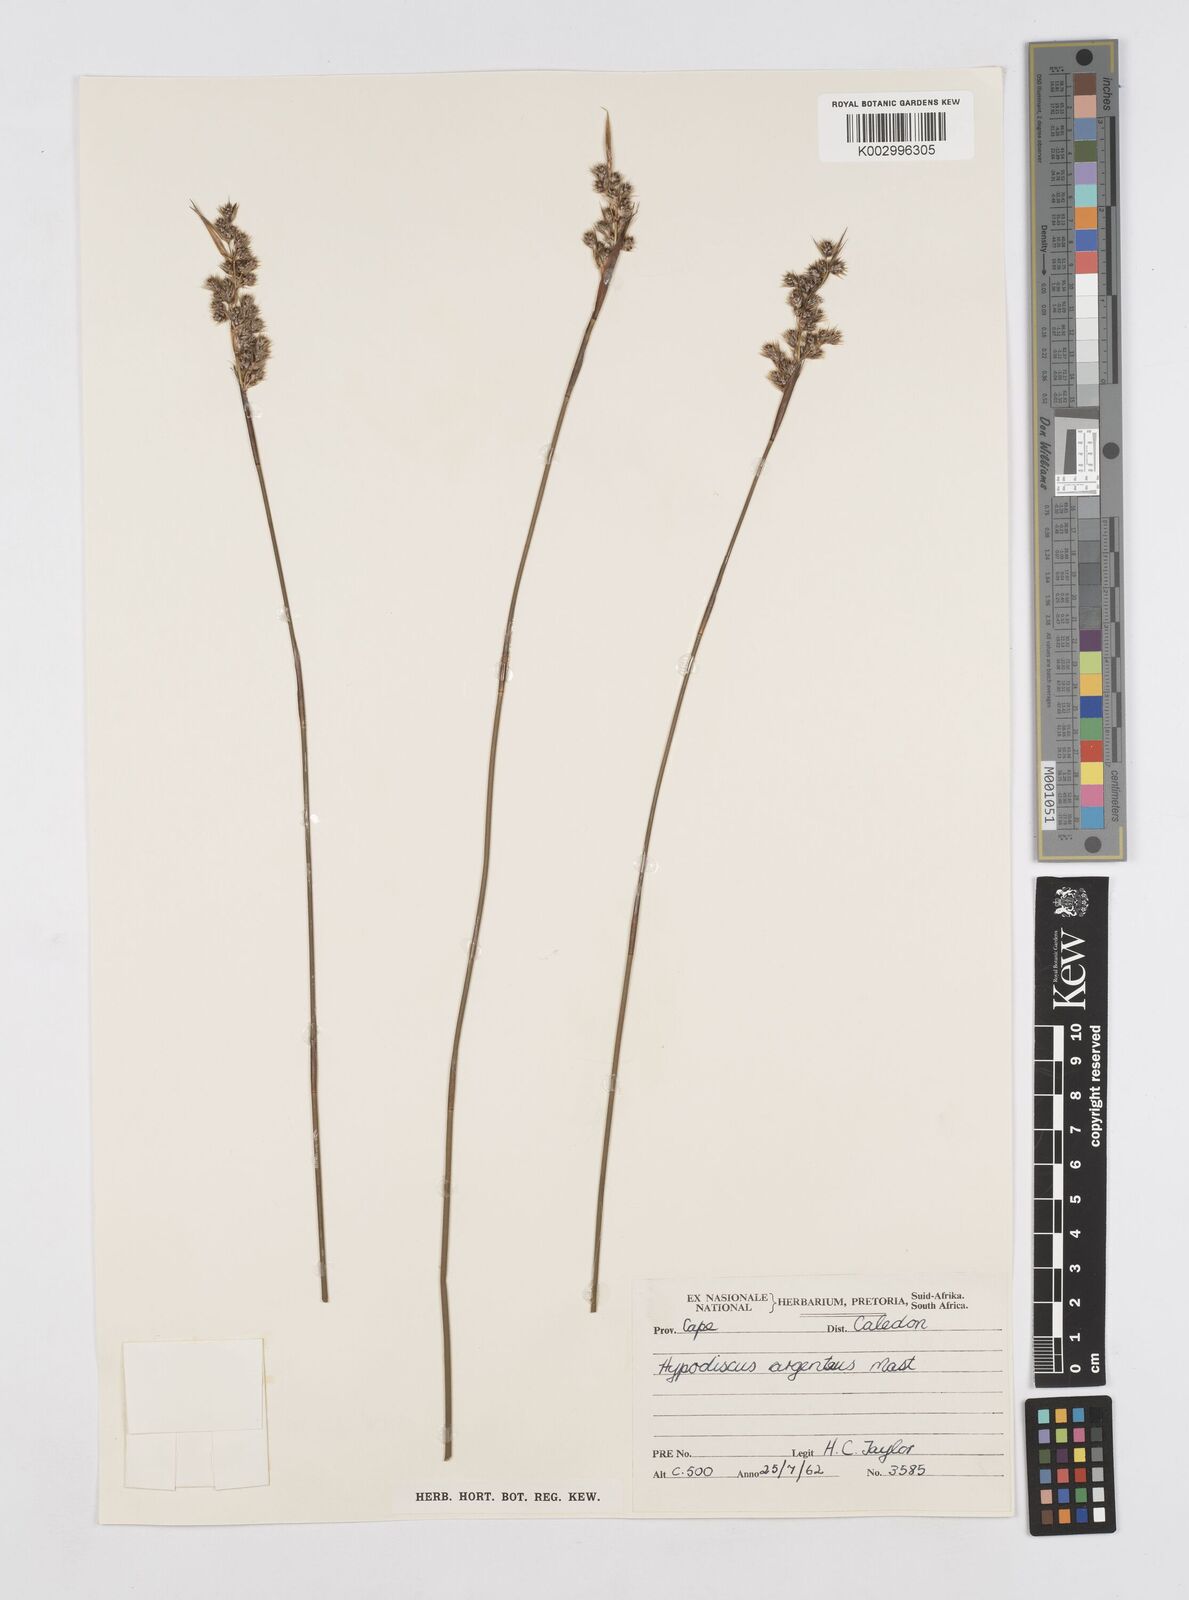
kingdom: Plantae
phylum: Tracheophyta
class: Liliopsida
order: Poales
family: Restionaceae
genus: Hypodiscus
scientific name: Hypodiscus argenteus
